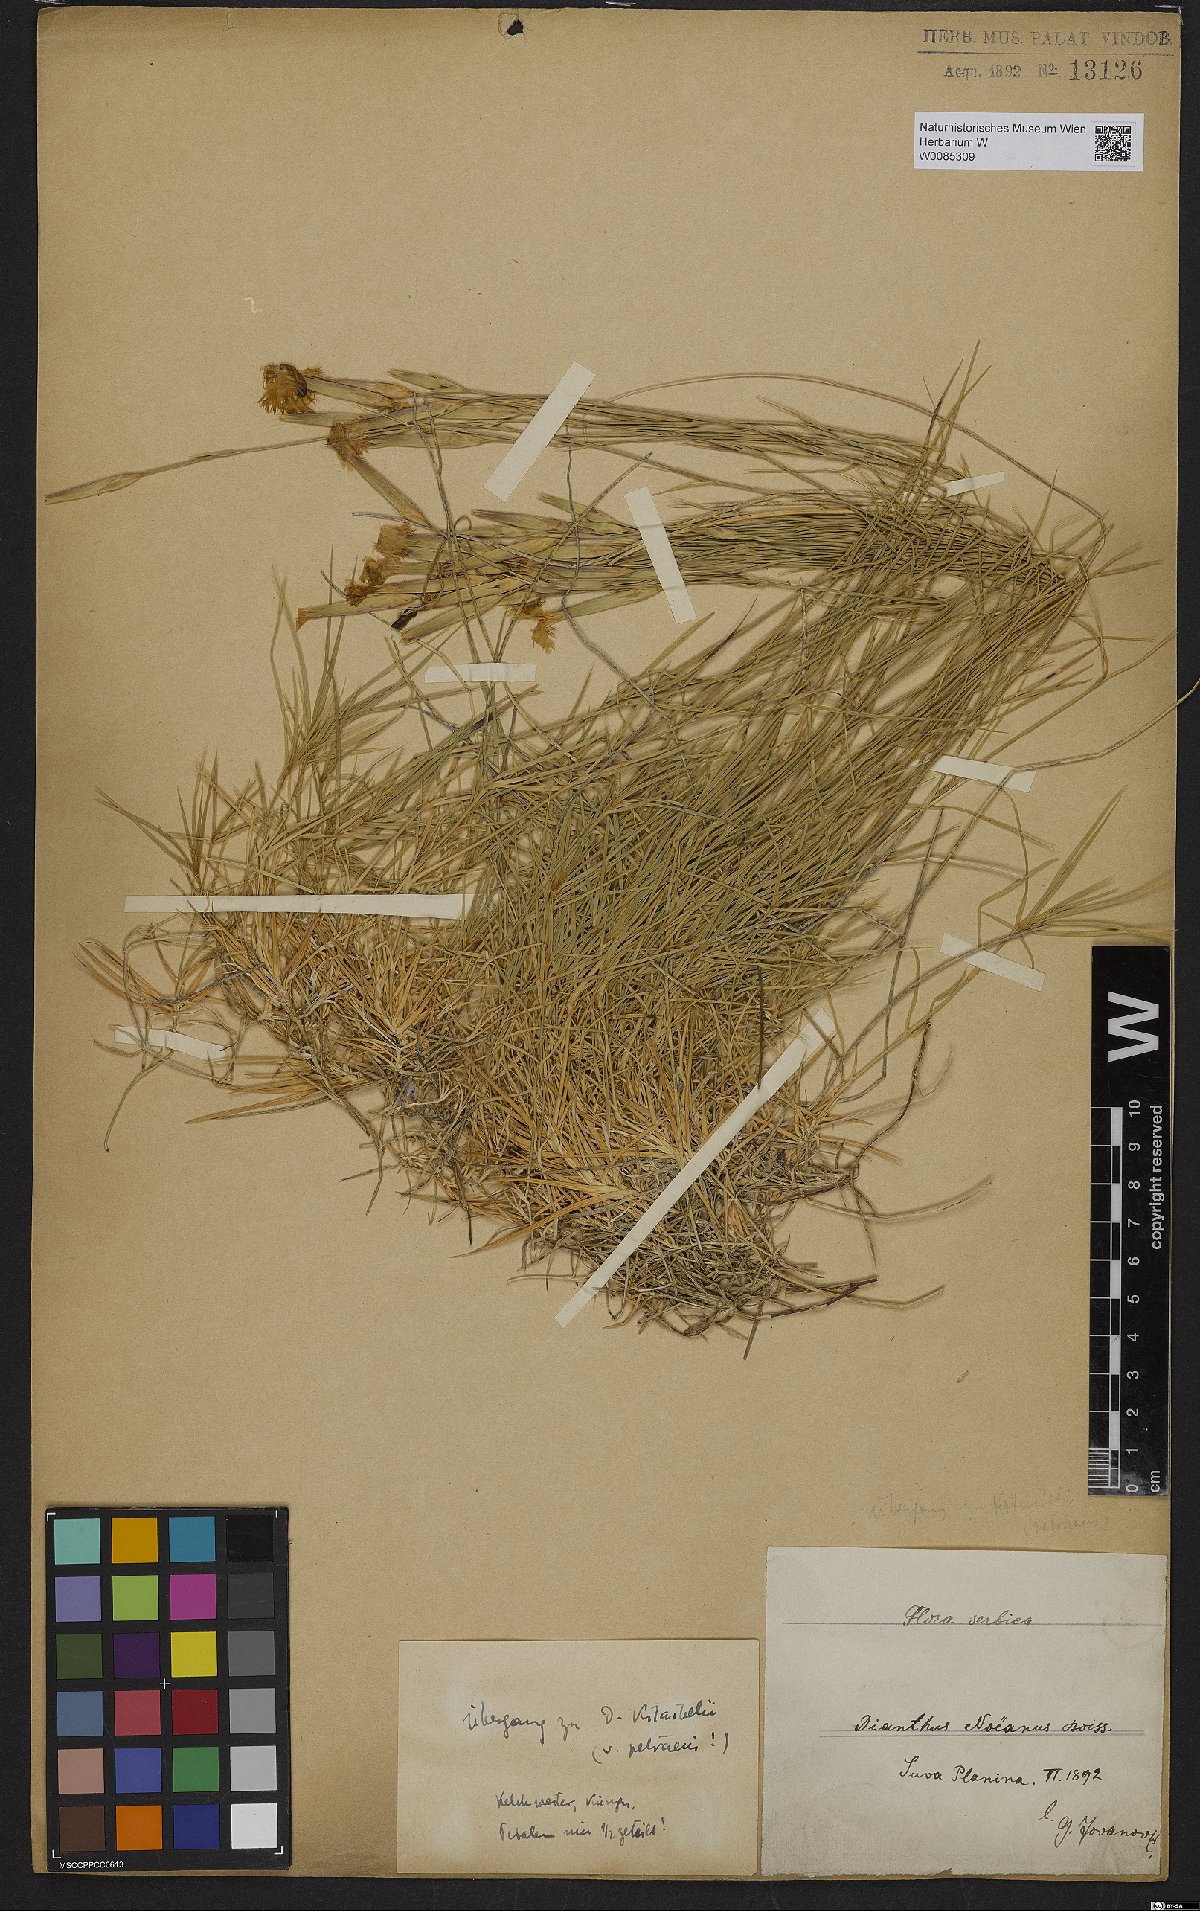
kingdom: Plantae
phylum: Tracheophyta
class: Magnoliopsida
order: Caryophyllales
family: Caryophyllaceae
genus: Dianthus
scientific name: Dianthus petraeus
